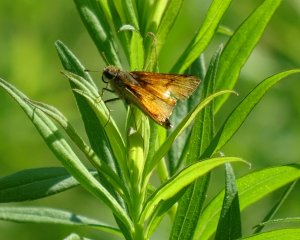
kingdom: Animalia
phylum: Arthropoda
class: Insecta
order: Lepidoptera
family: Hesperiidae
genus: Atrytone
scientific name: Atrytone delaware
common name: Delaware Skipper
